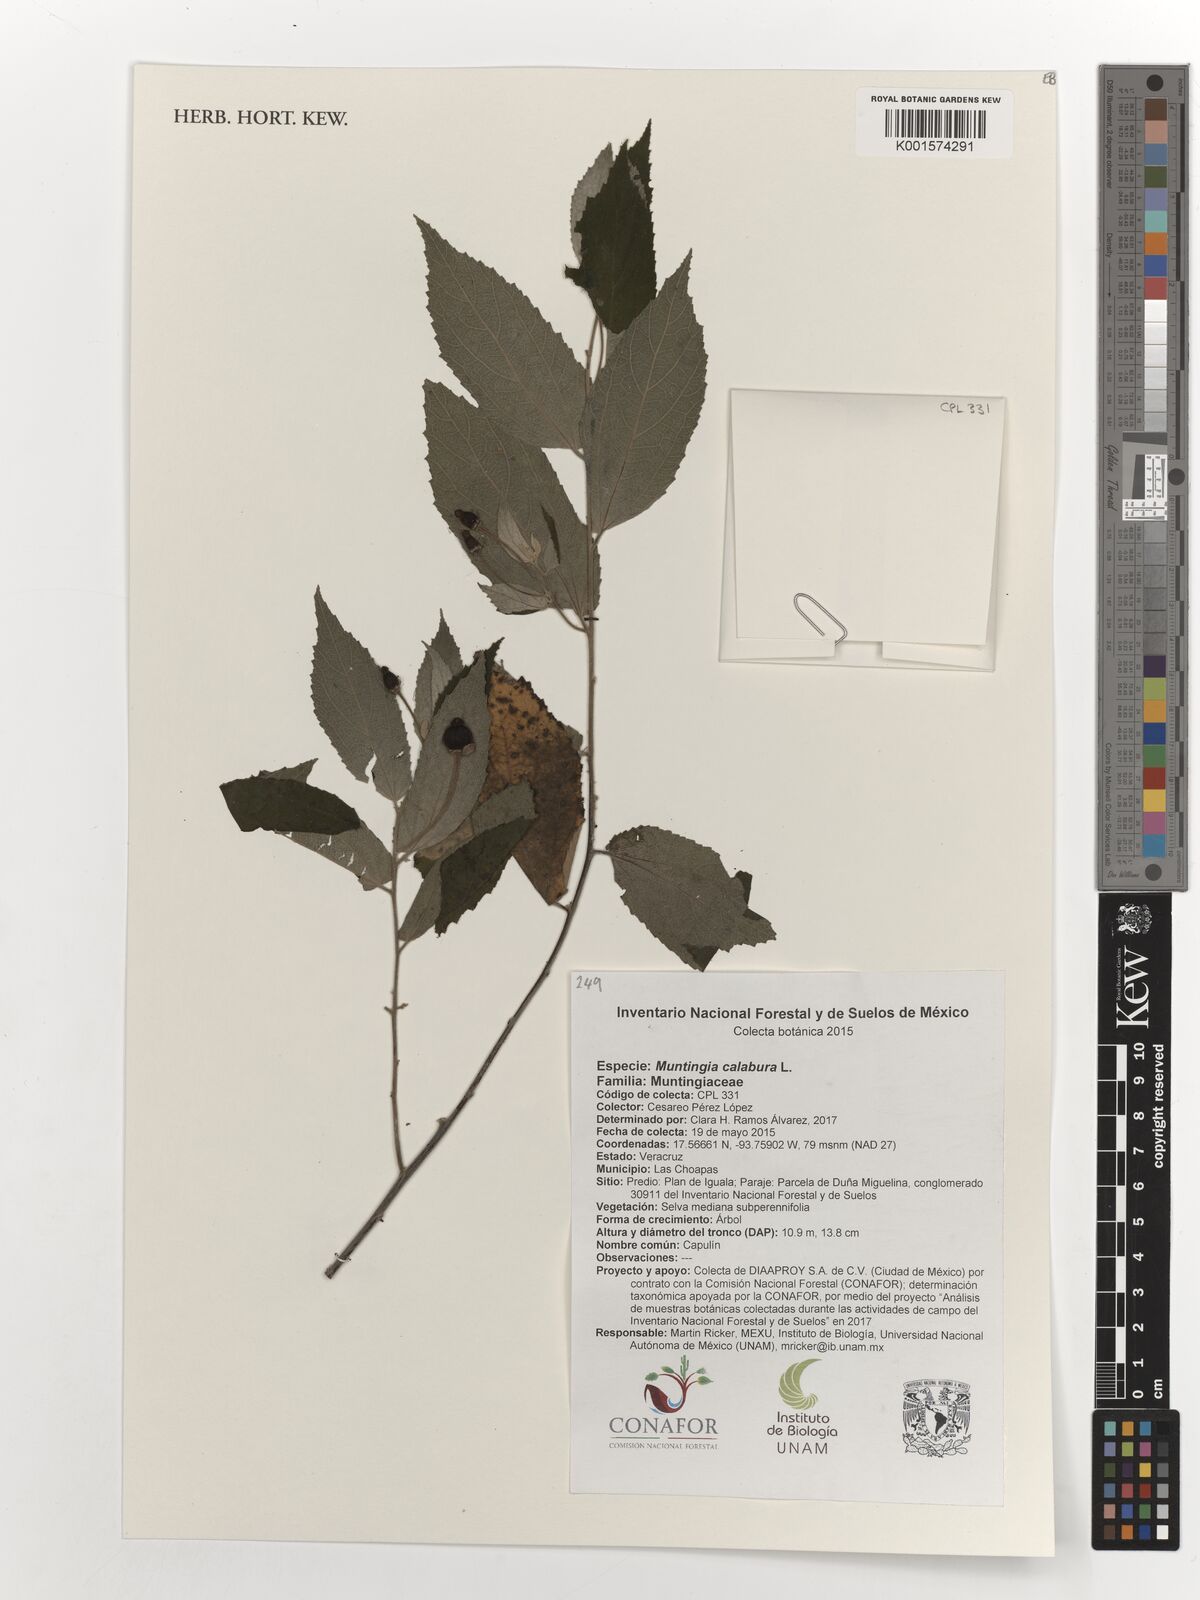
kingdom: Plantae
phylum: Tracheophyta
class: Magnoliopsida
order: Malvales
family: Muntingiaceae
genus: Muntingia
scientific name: Muntingia calabura
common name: Strawberrytree
